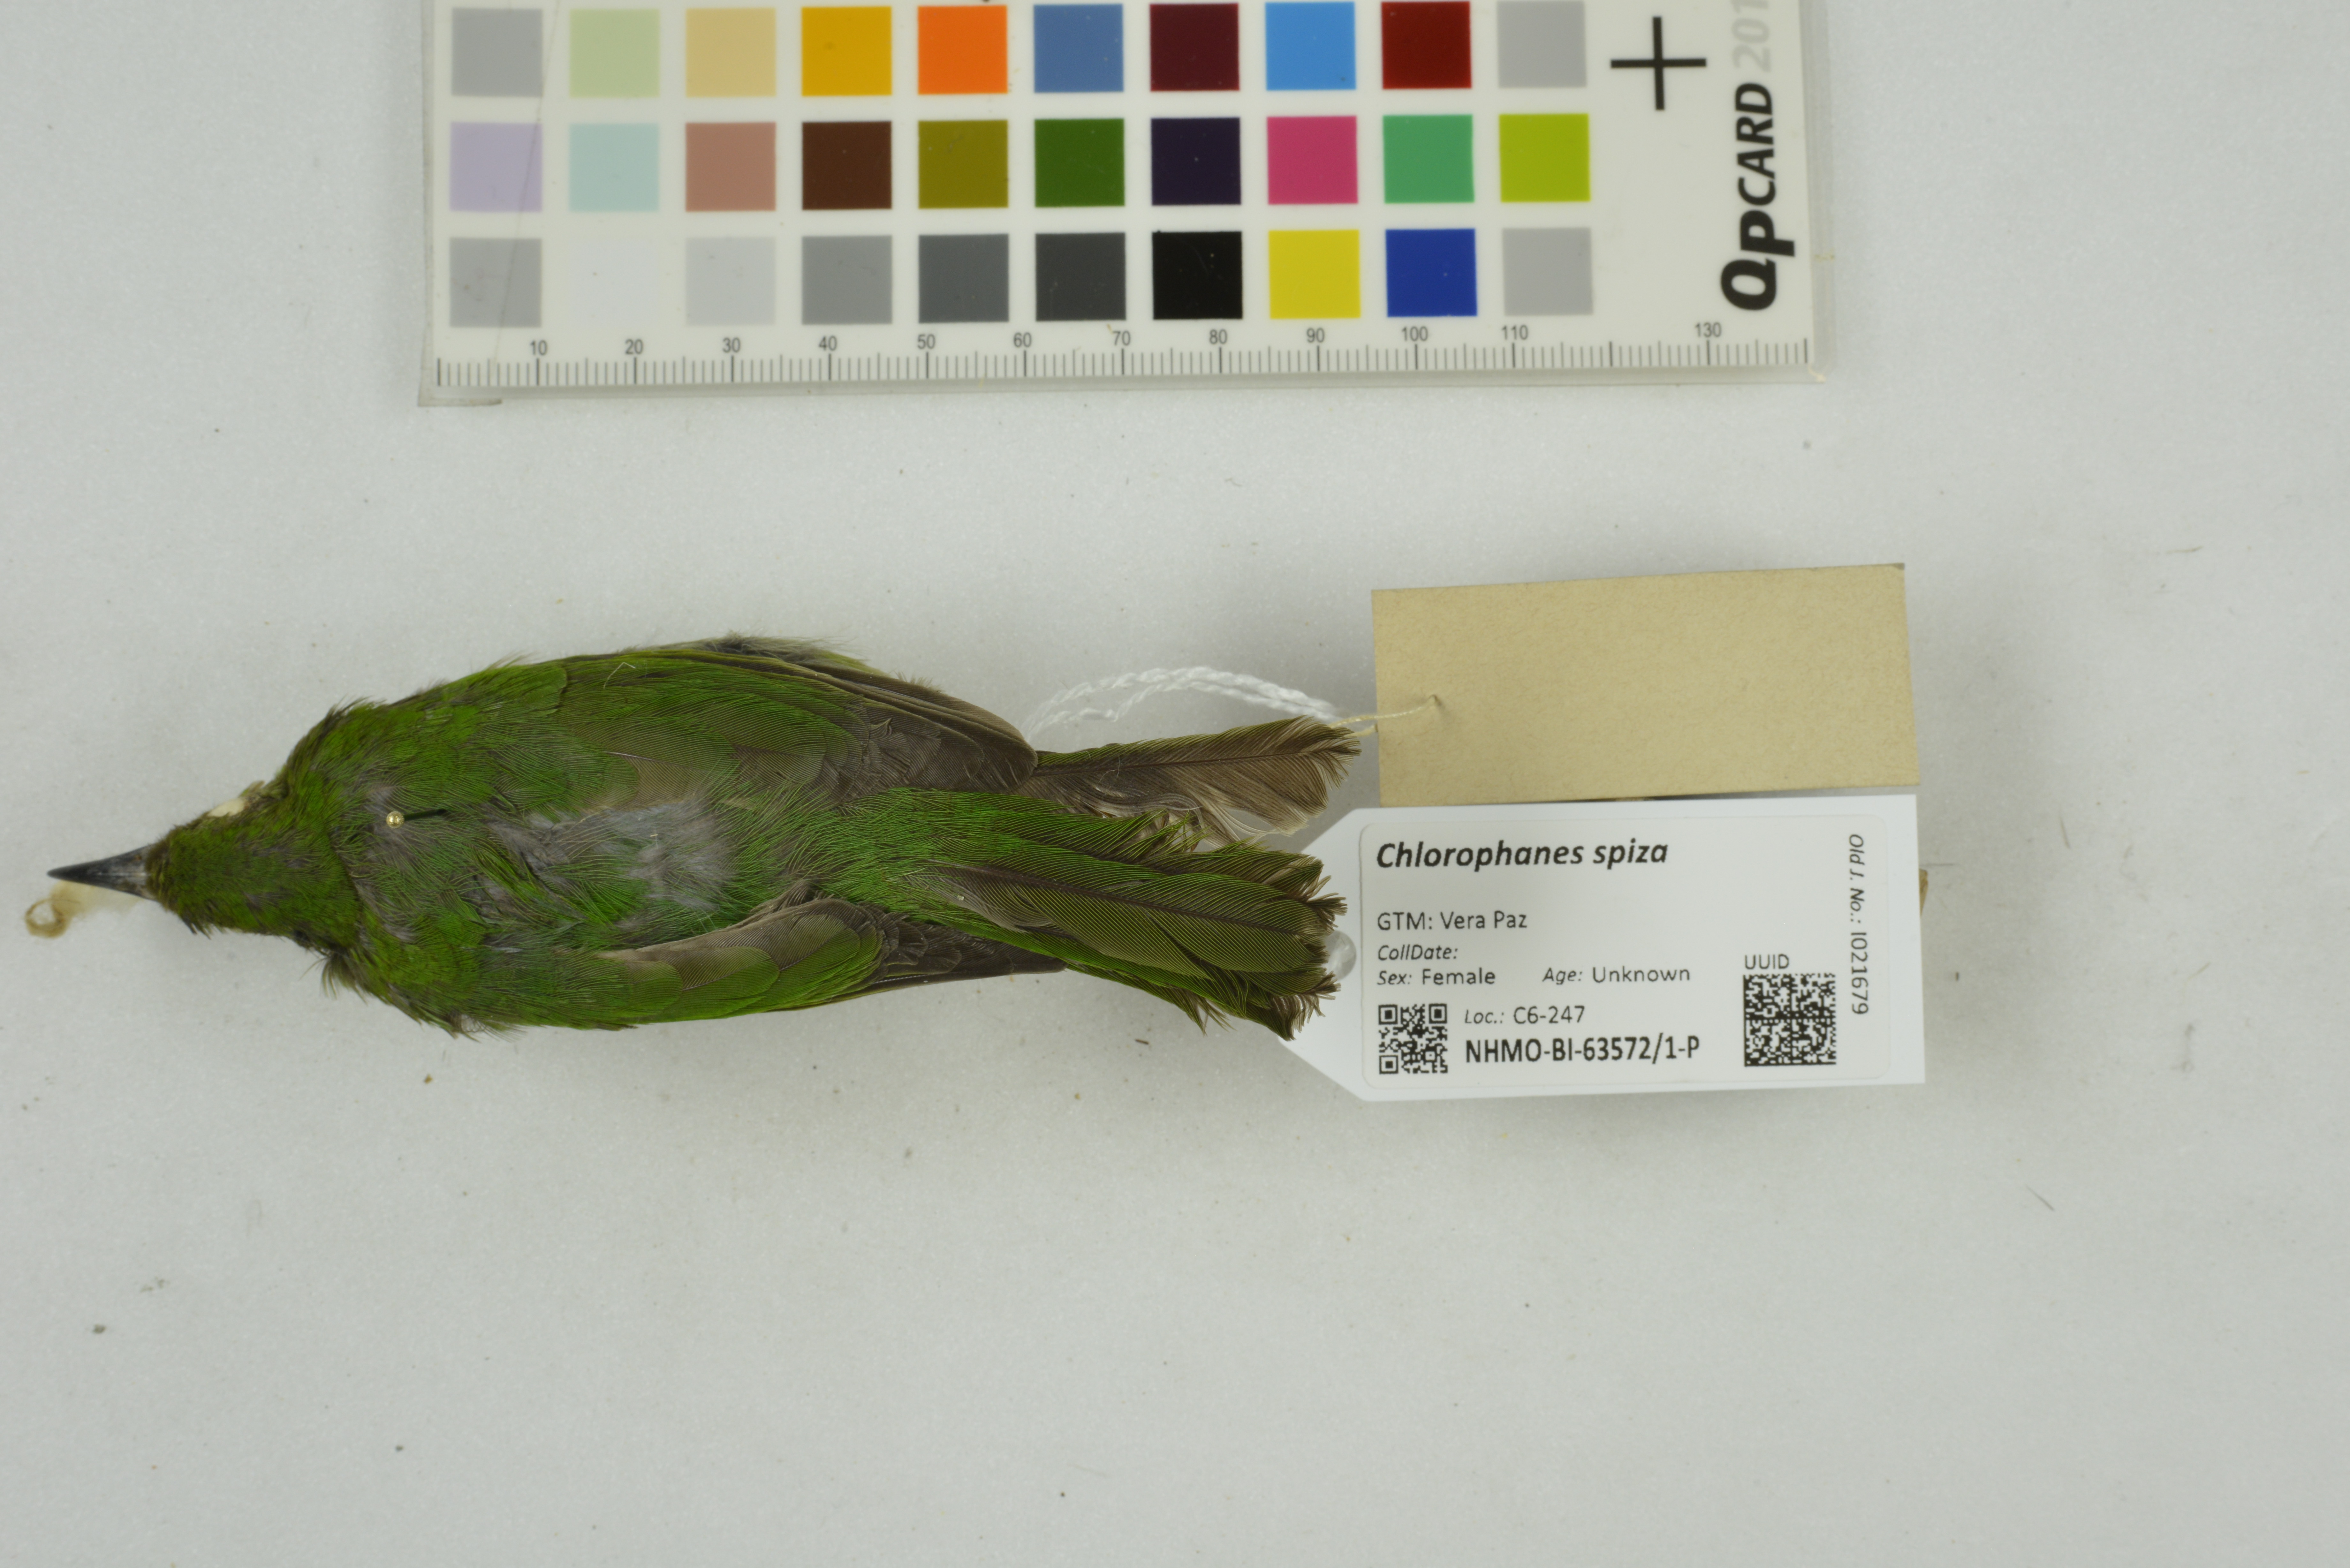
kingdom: Animalia
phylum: Chordata
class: Aves
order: Passeriformes
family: Thraupidae
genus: Chlorophanes
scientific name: Chlorophanes spiza
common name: Green honeycreeper
